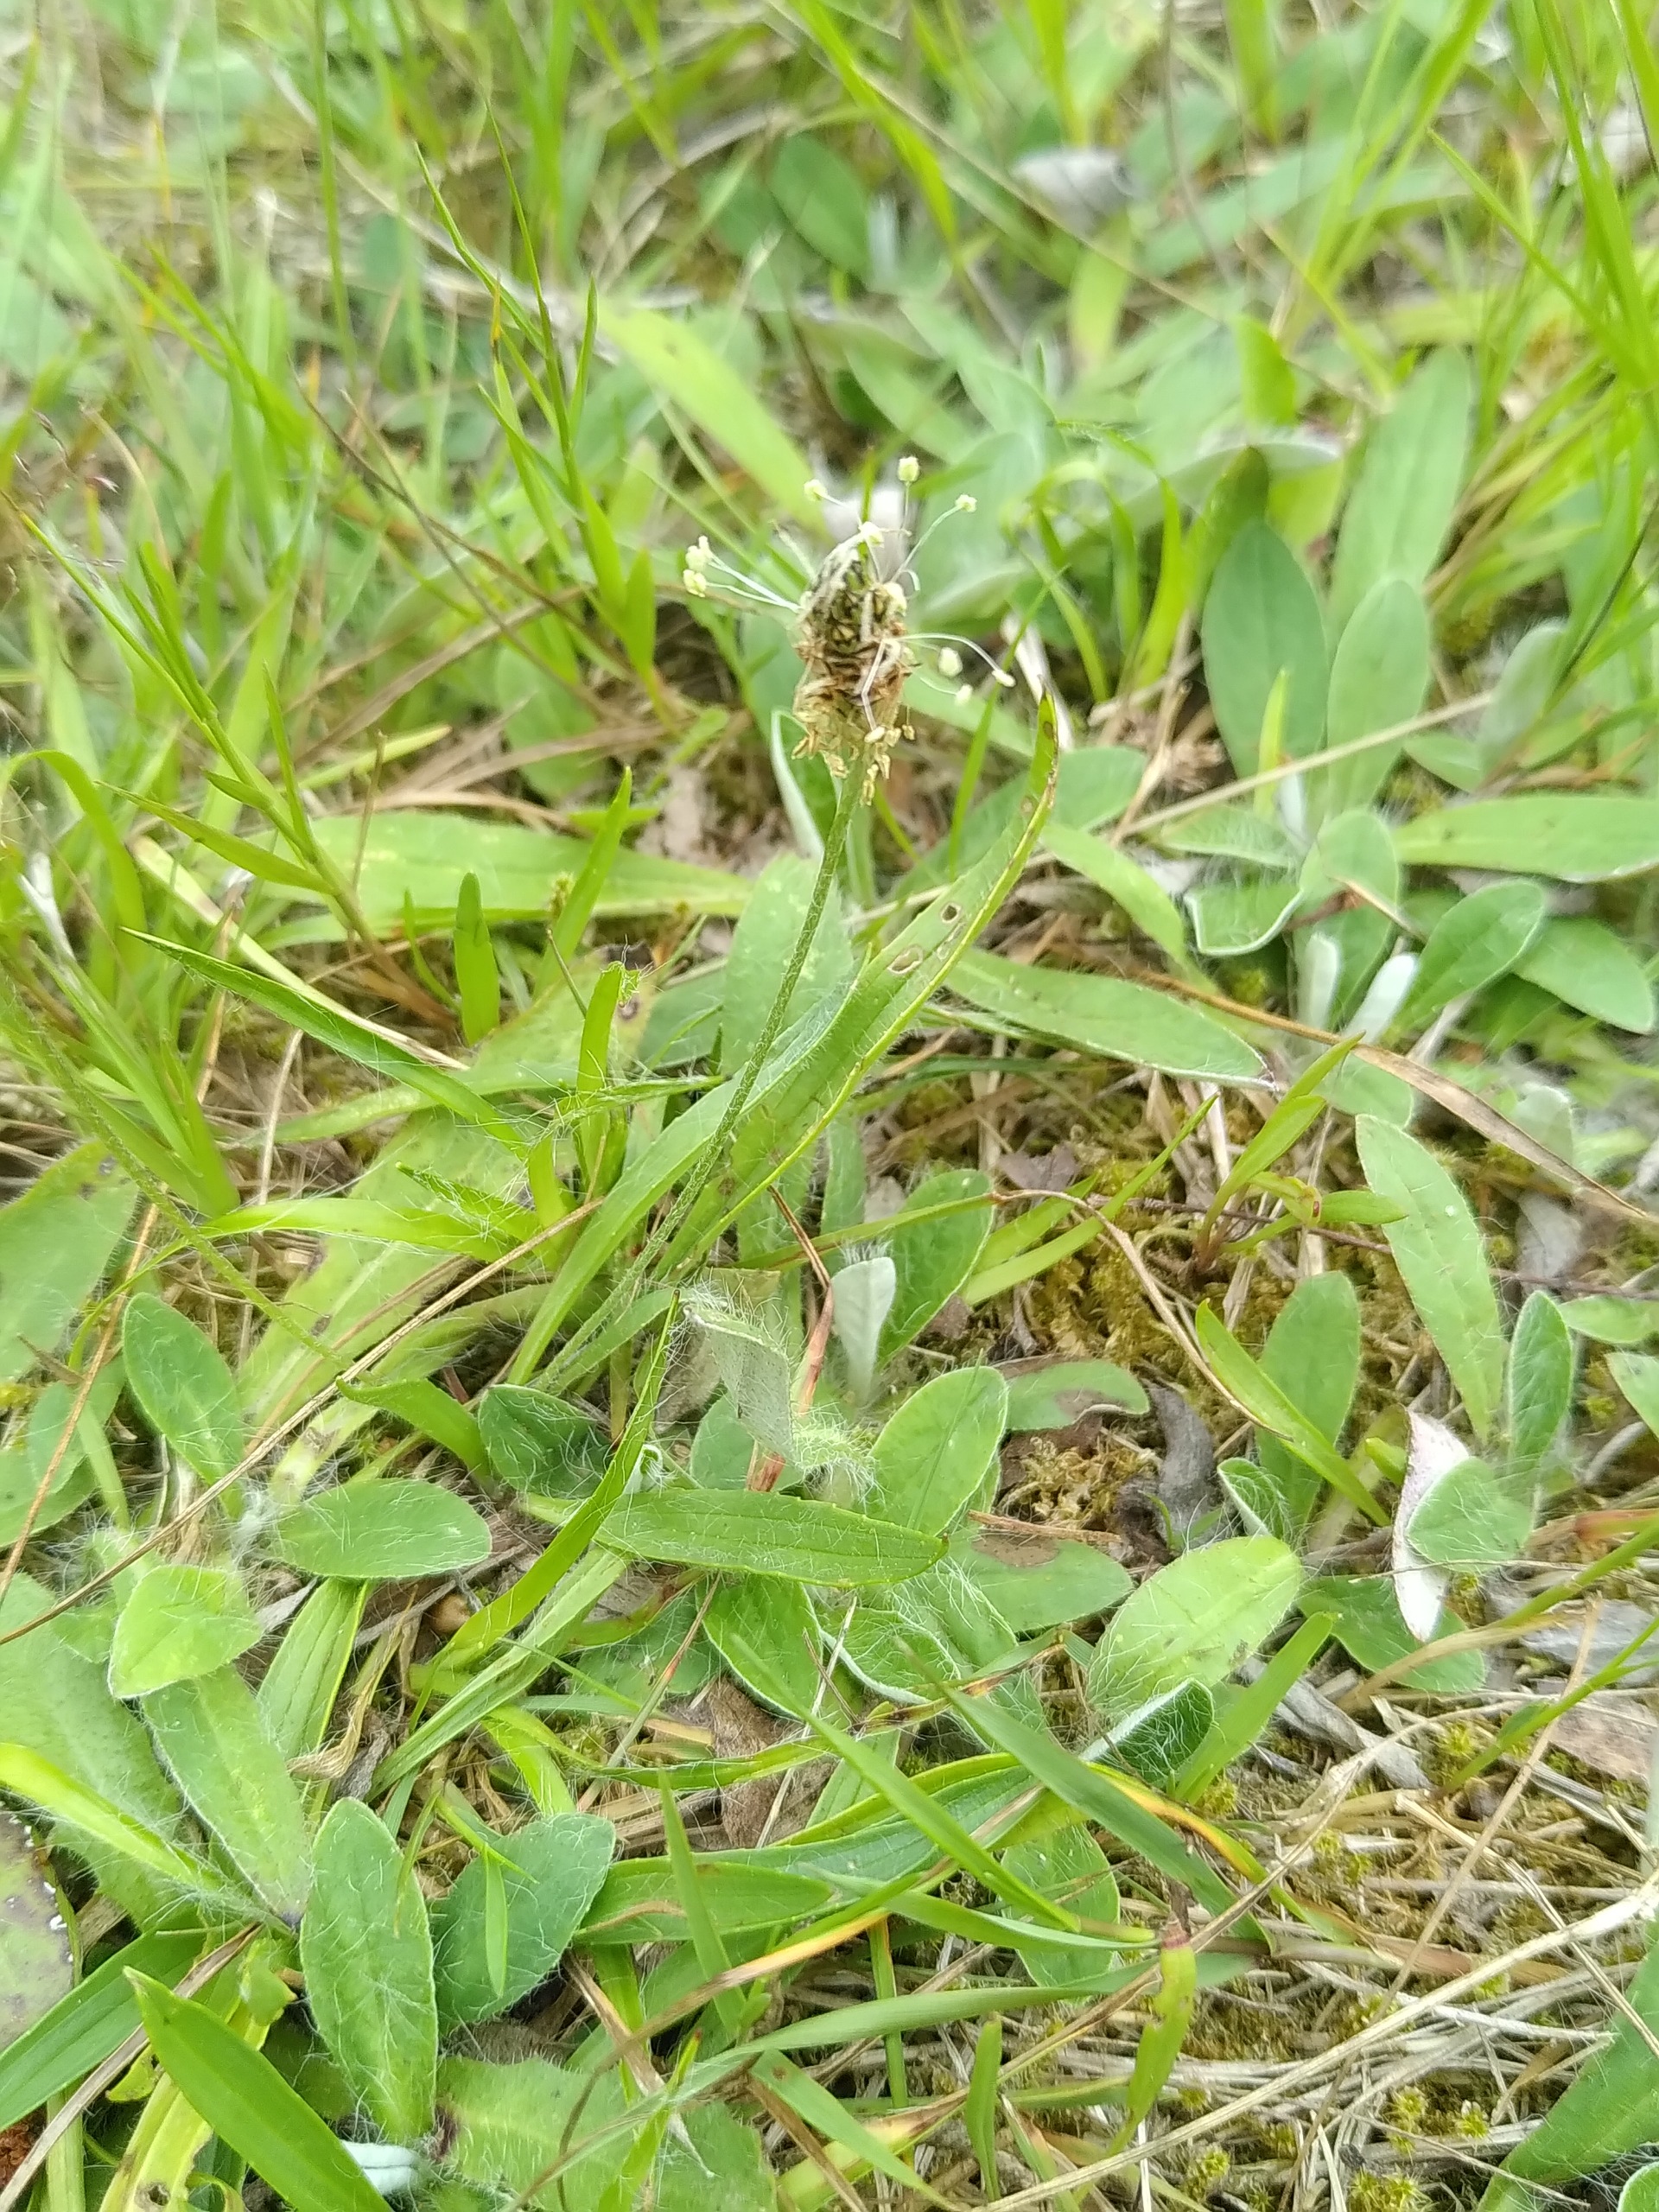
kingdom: Plantae
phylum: Tracheophyta
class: Magnoliopsida
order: Asterales
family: Asteraceae
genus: Pilosella
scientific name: Pilosella officinarum
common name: Håret høgeurt
